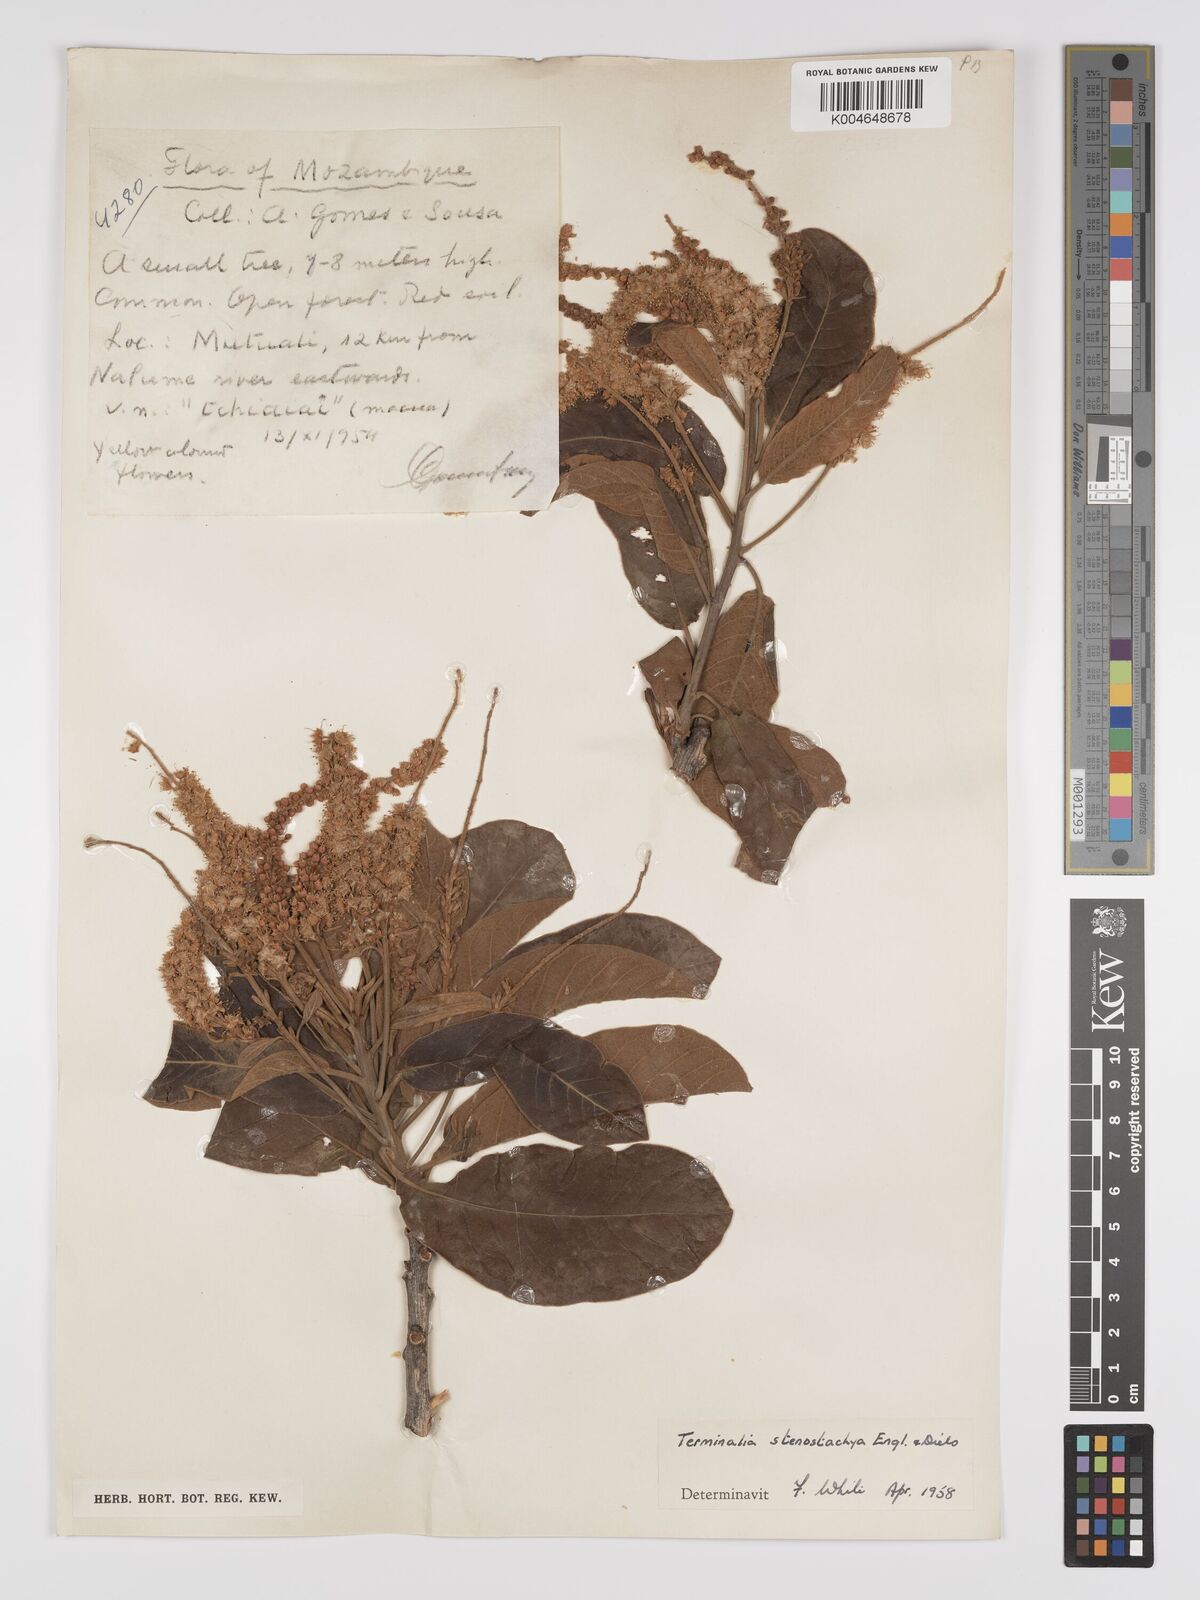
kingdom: Plantae
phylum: Tracheophyta
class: Magnoliopsida
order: Myrtales
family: Combretaceae
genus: Terminalia
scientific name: Terminalia stenostachya
